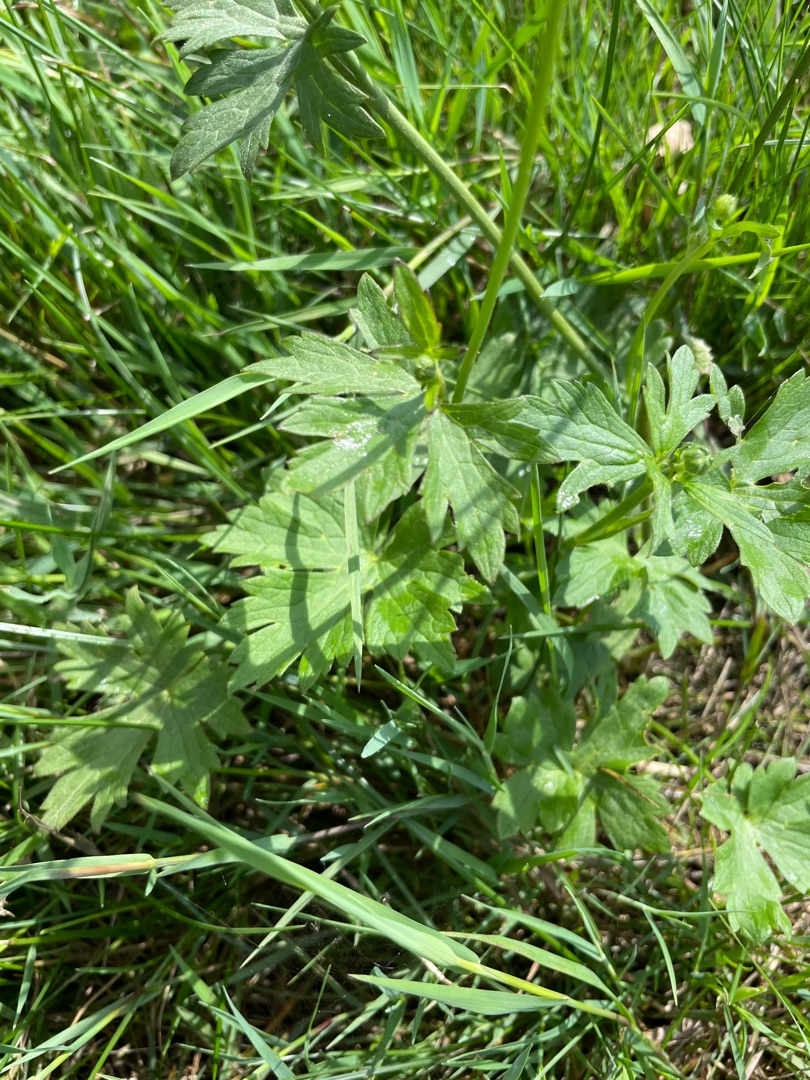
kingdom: Plantae
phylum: Tracheophyta
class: Magnoliopsida
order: Ranunculales
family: Ranunculaceae
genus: Ranunculus
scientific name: Ranunculus acris
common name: Bidende ranunkel
